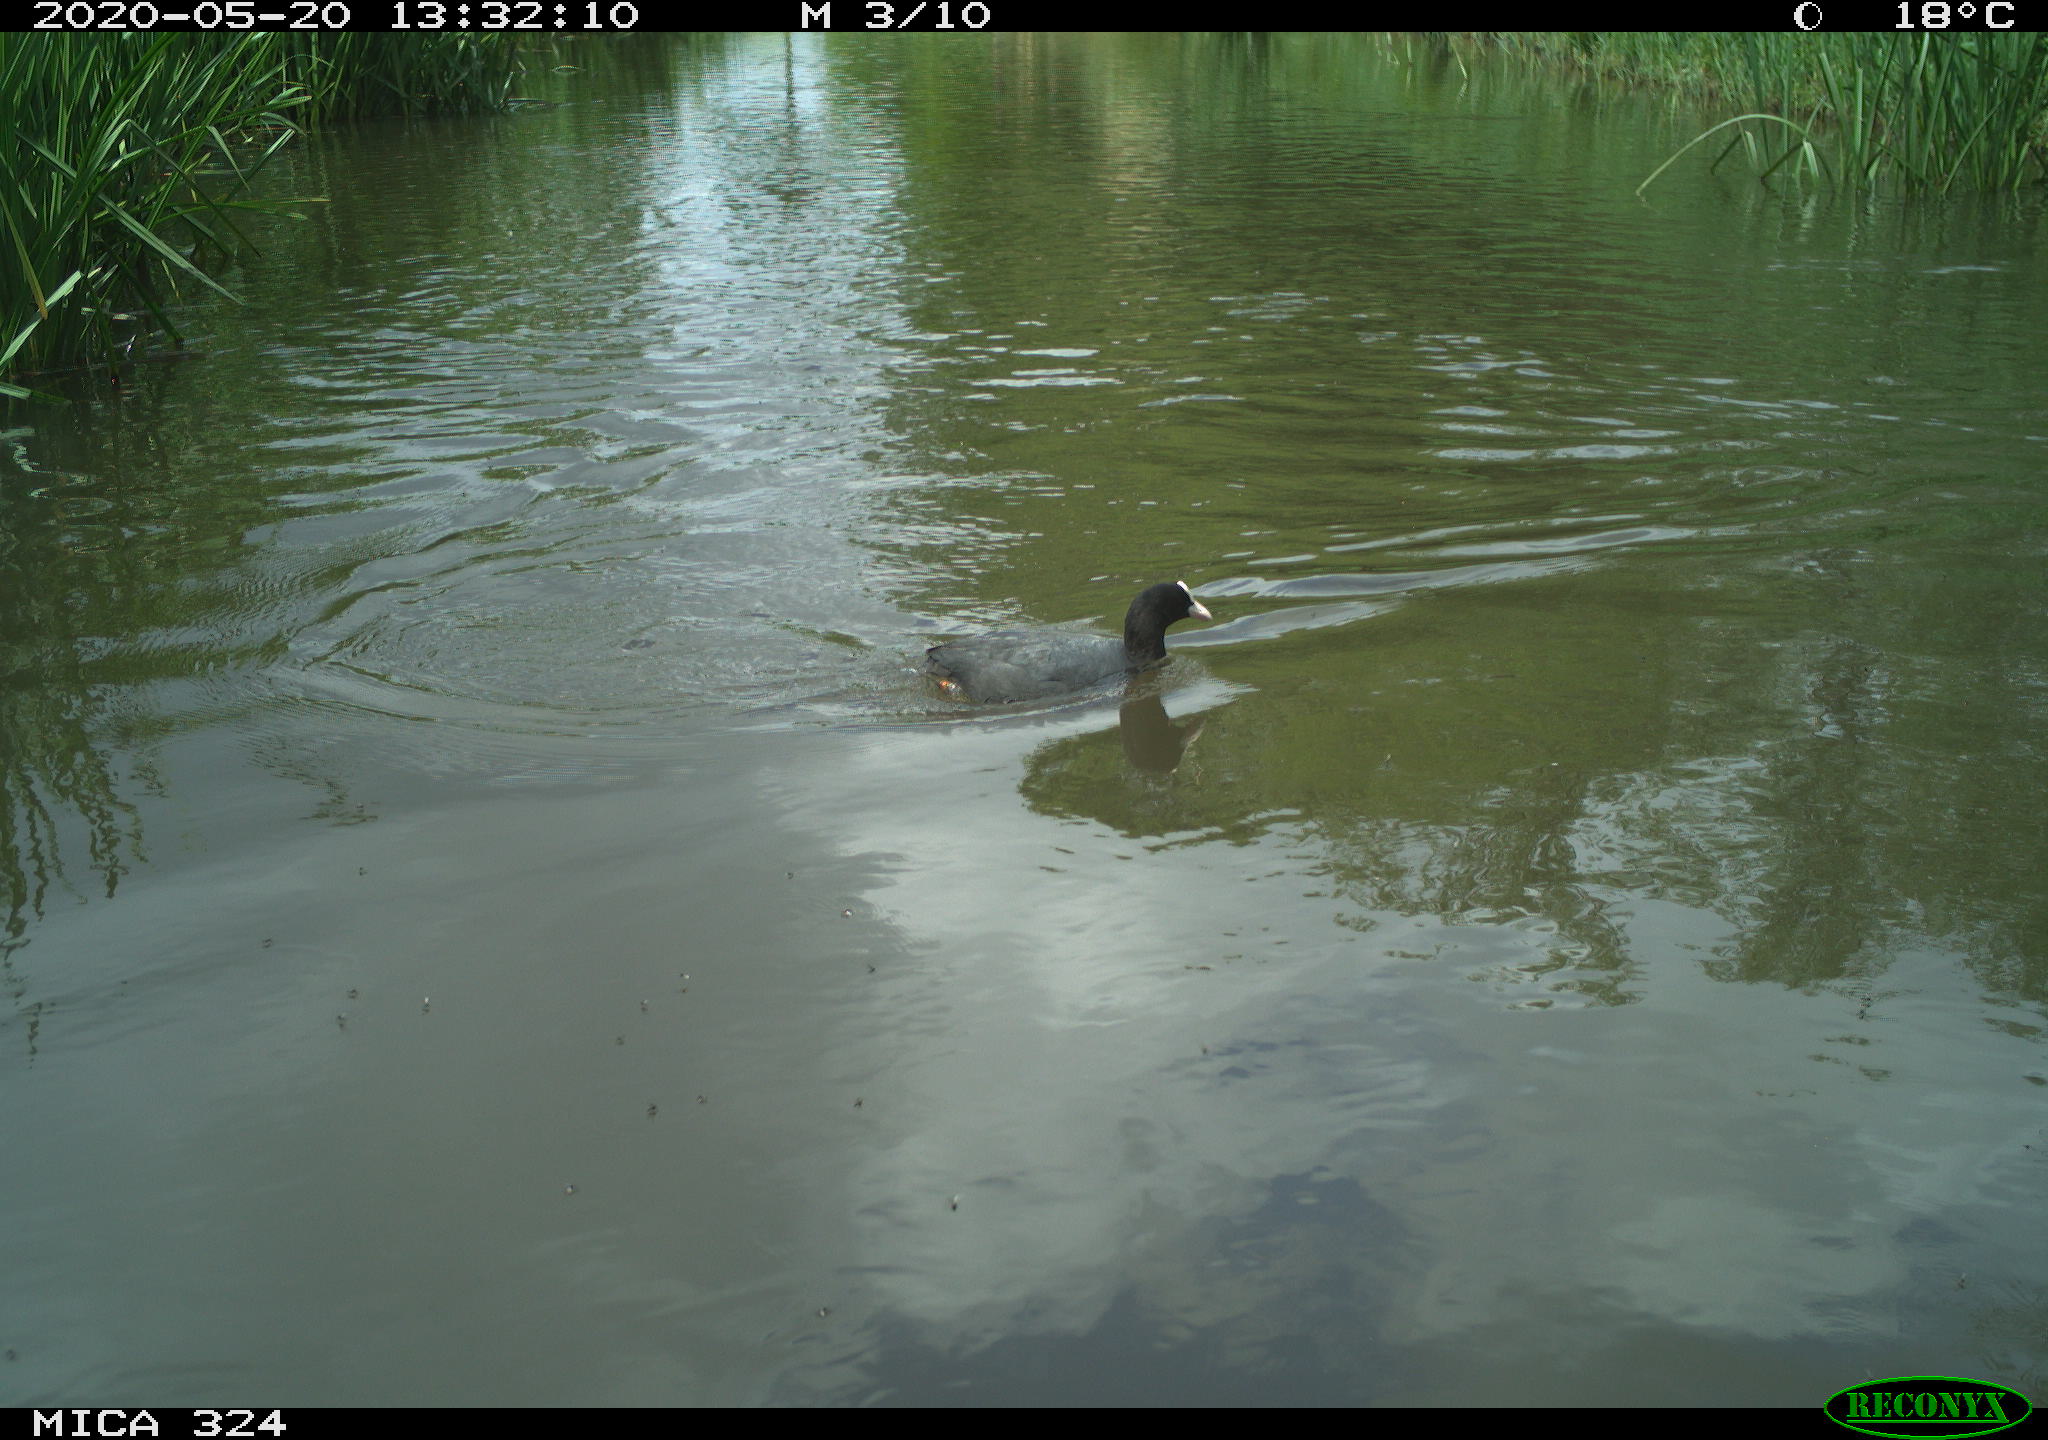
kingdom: Animalia
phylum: Chordata
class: Aves
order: Gruiformes
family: Rallidae
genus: Fulica
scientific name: Fulica atra
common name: Eurasian coot
